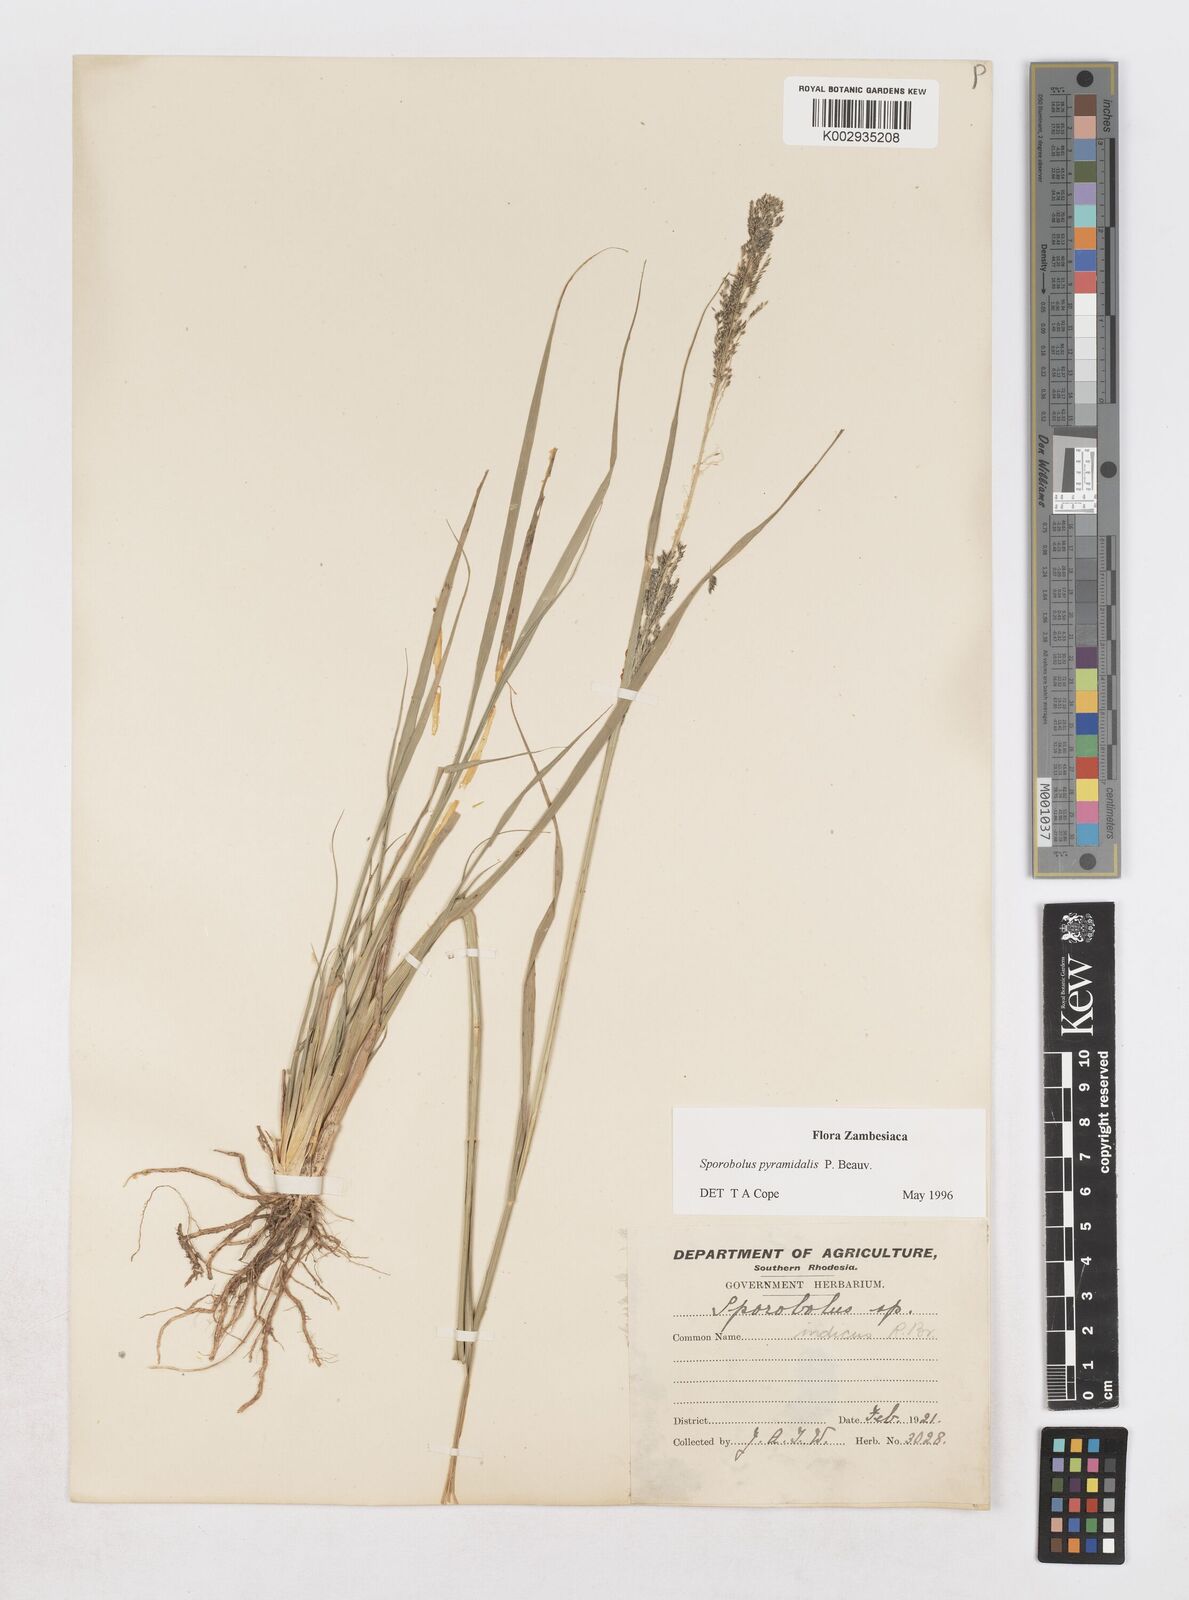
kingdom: Plantae
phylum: Tracheophyta
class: Liliopsida
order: Poales
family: Poaceae
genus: Sporobolus
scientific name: Sporobolus pyramidalis
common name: West indian dropseed
